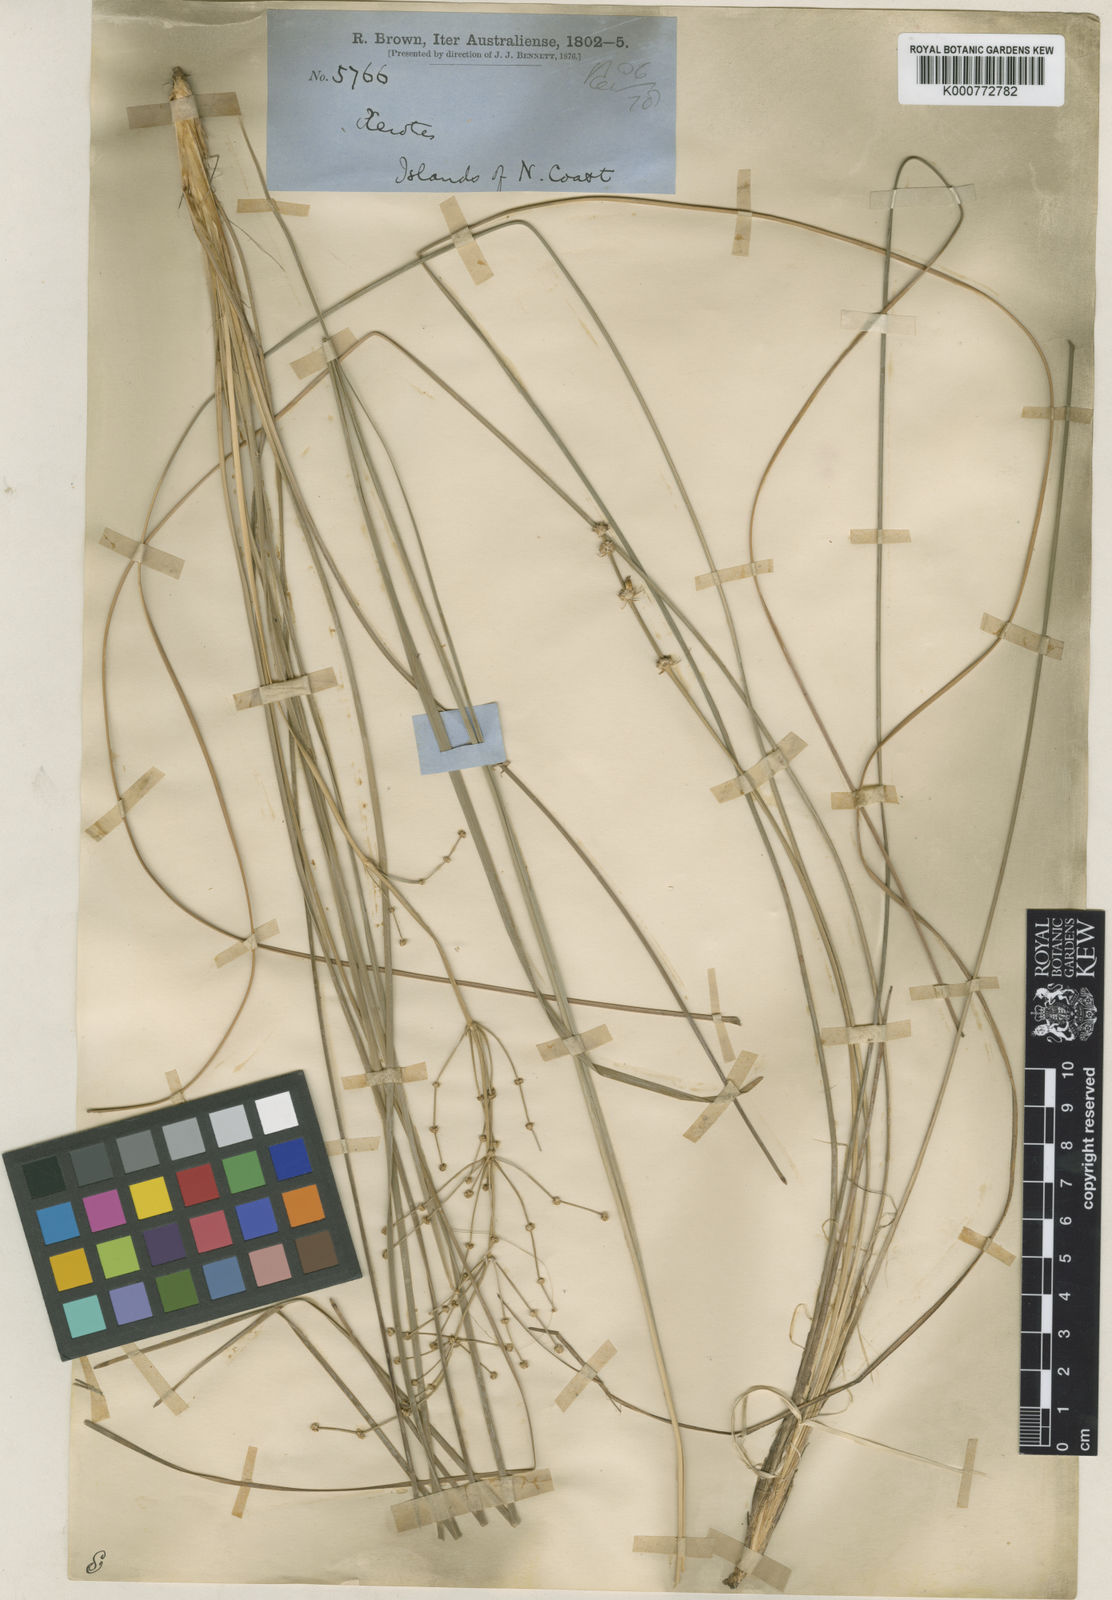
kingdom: Plantae
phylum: Tracheophyta
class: Liliopsida
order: Asparagales
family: Asparagaceae
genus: Lomandra
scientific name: Lomandra multiflora
